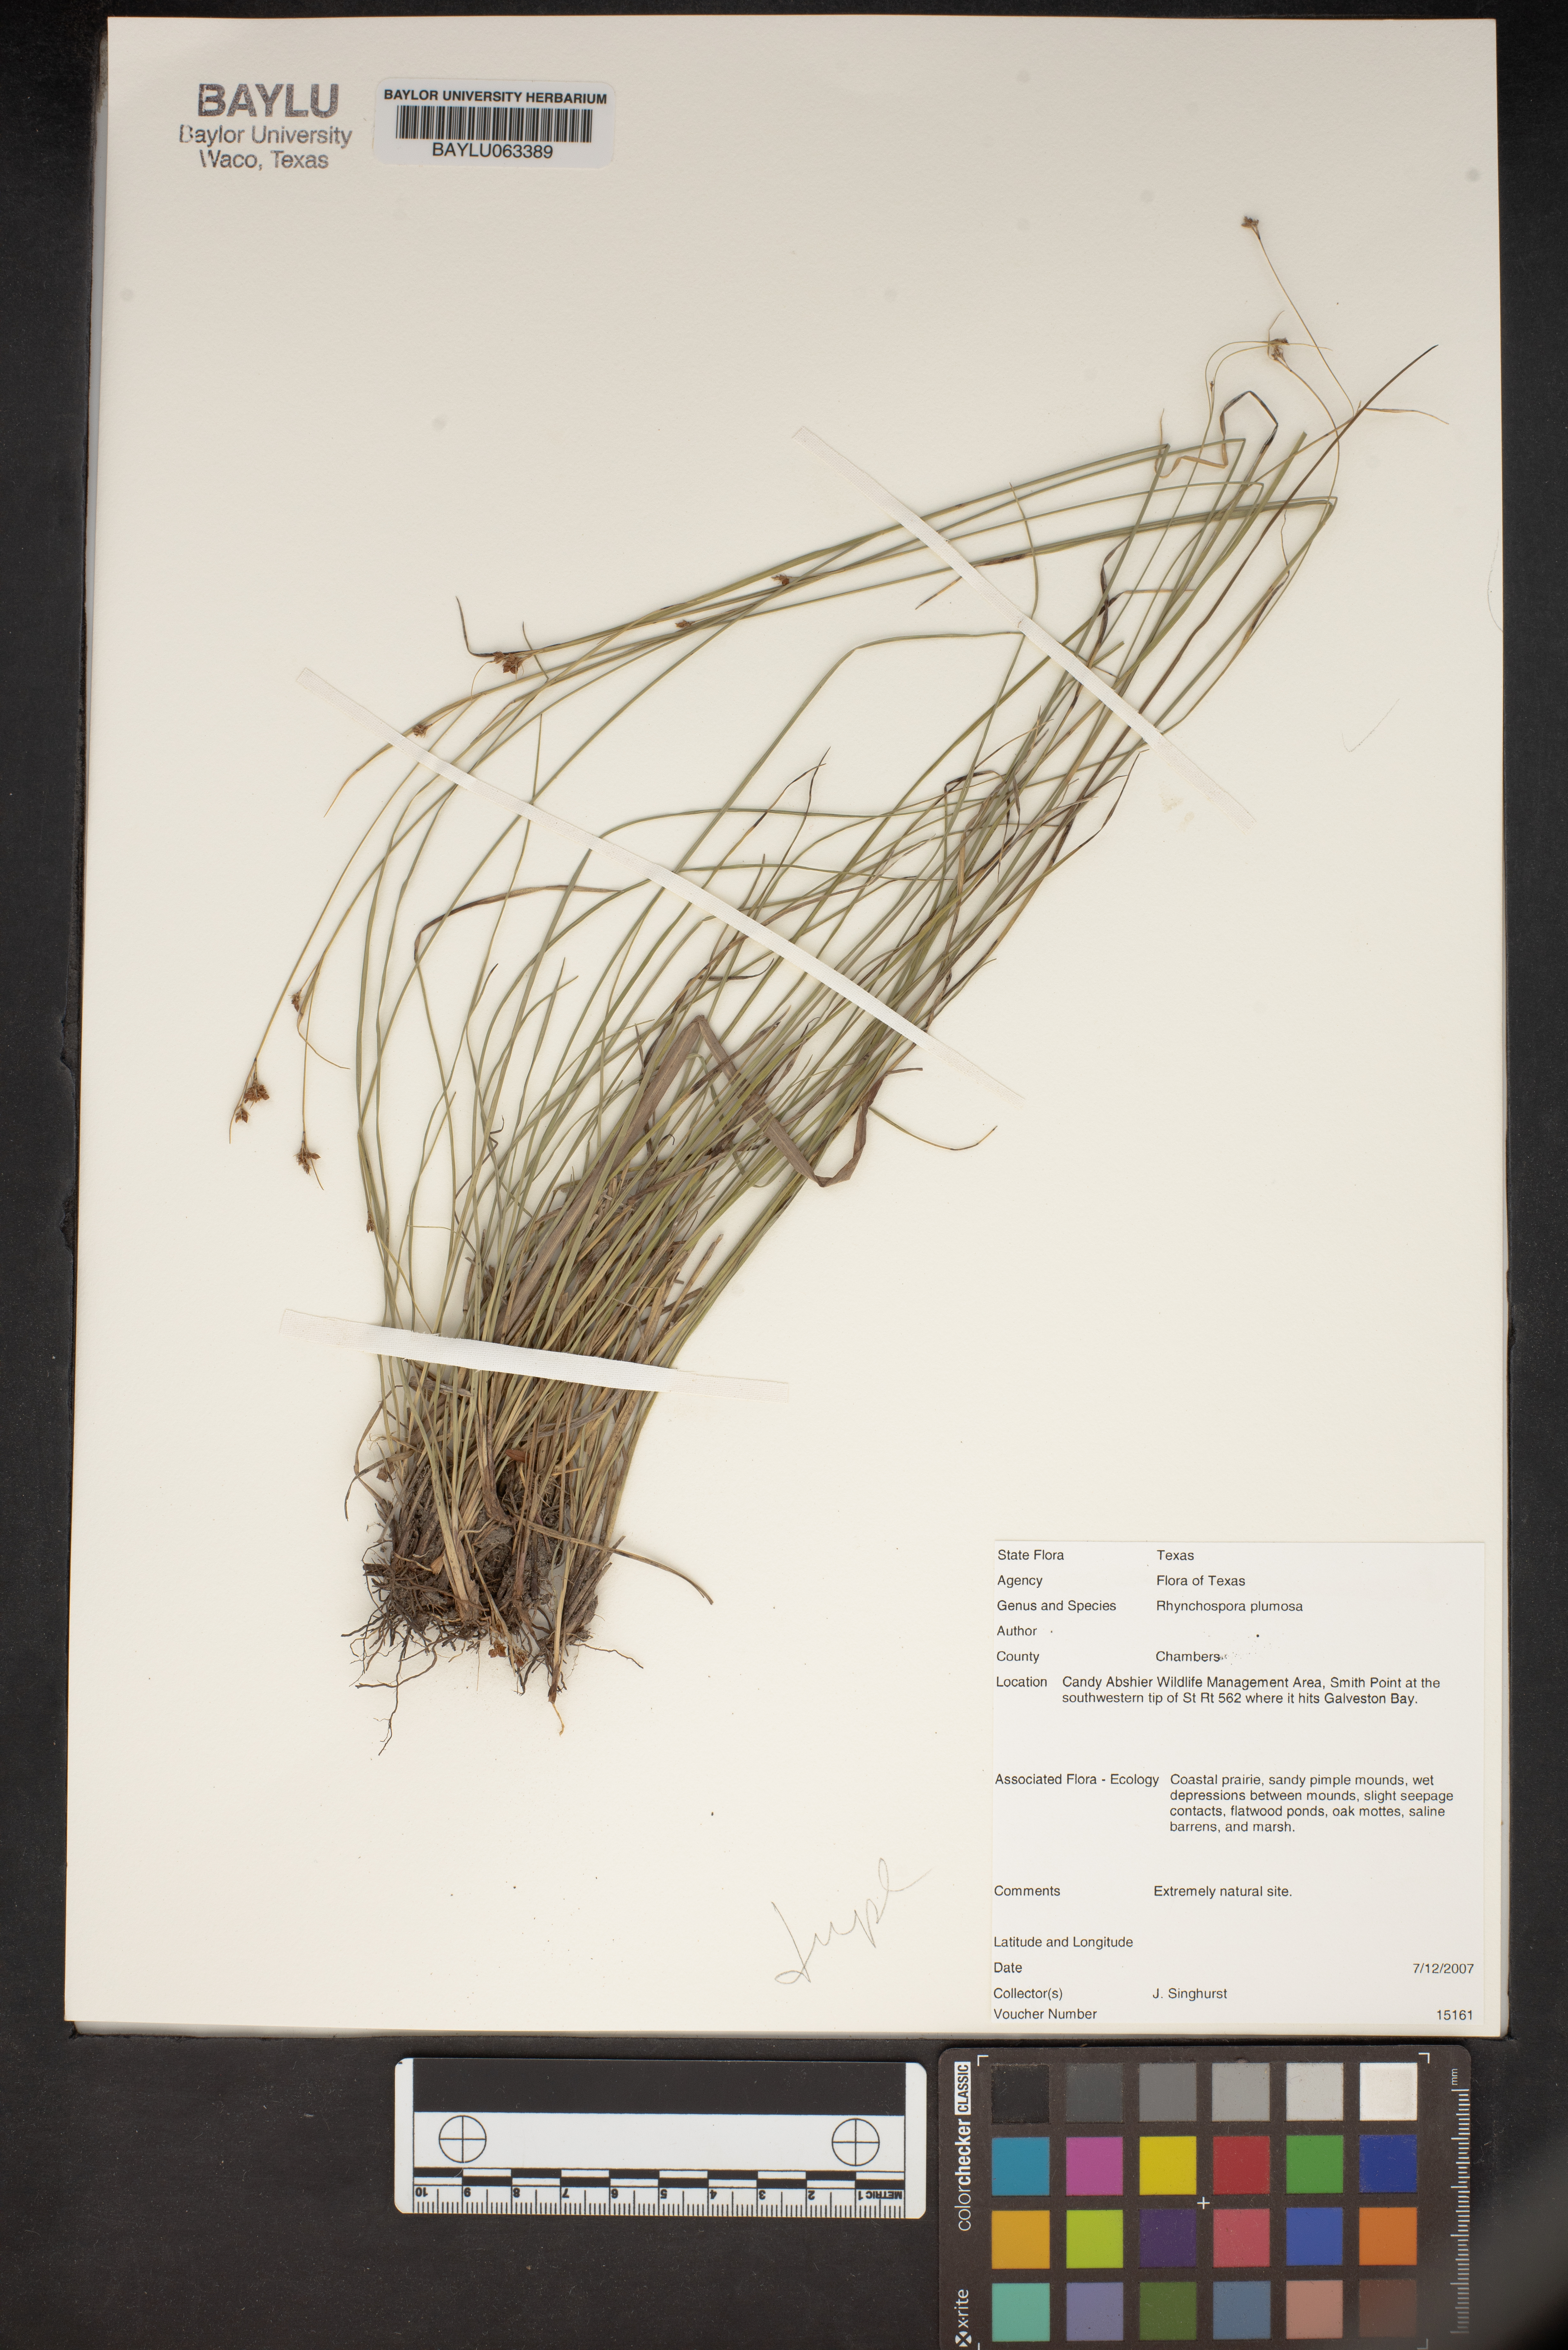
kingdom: Plantae
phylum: Tracheophyta
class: Liliopsida
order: Poales
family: Cyperaceae
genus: Rhynchospora
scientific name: Rhynchospora plumosa
